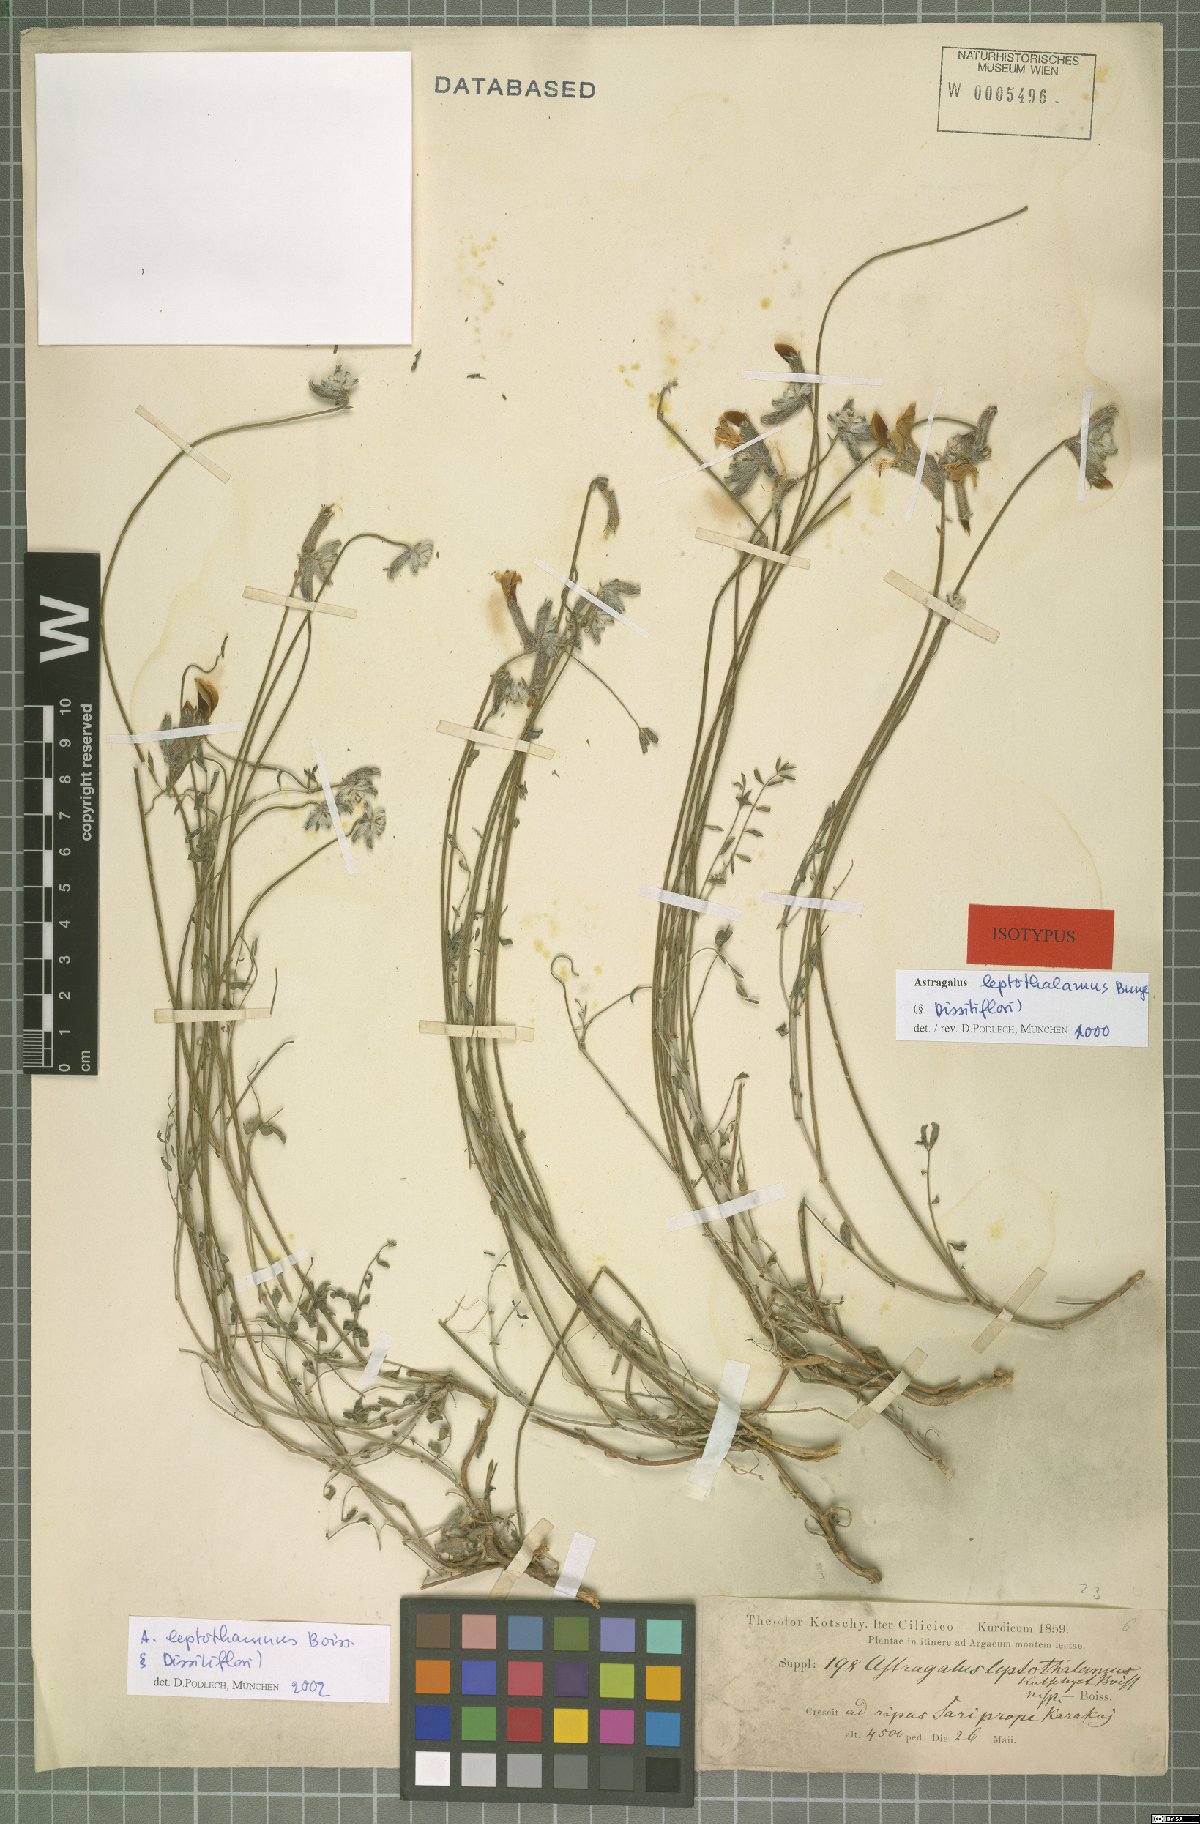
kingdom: Plantae
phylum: Tracheophyta
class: Magnoliopsida
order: Fabales
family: Fabaceae
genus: Astragalus
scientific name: Astragalus leptothamnus
